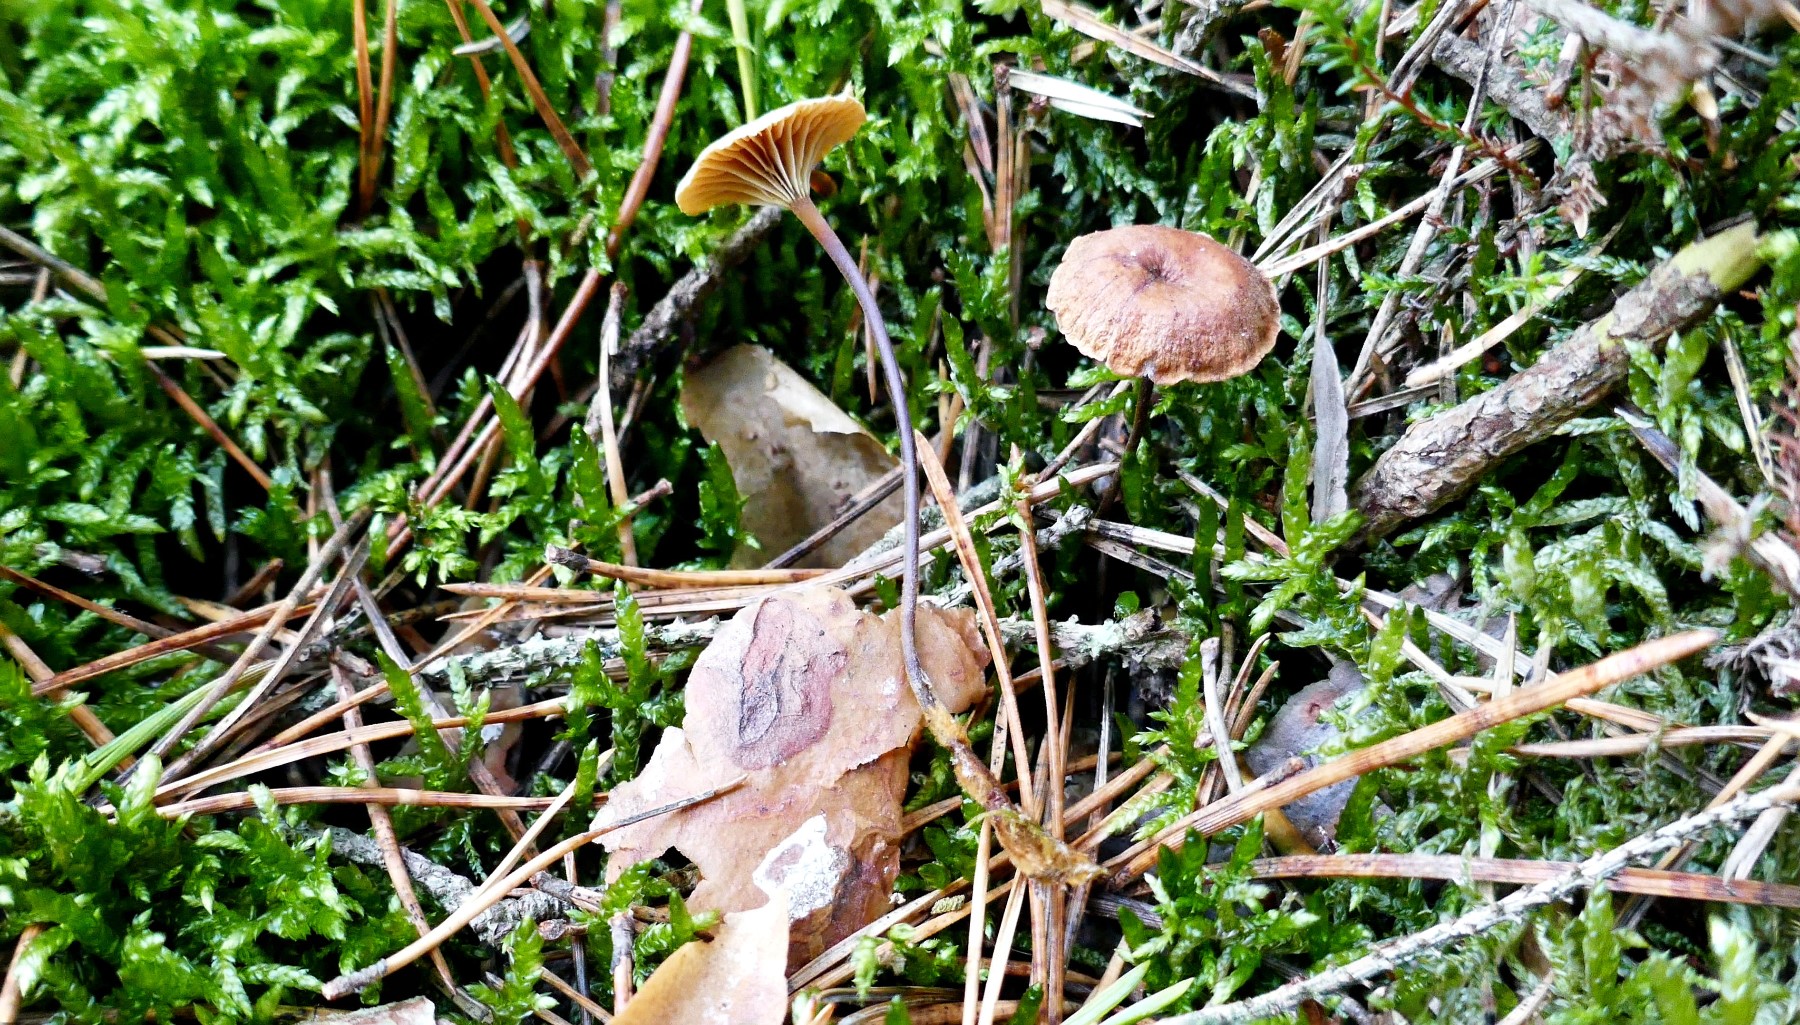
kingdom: Fungi
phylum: Basidiomycota
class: Agaricomycetes
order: Agaricales
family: Mycenaceae
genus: Xeromphalina
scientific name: Xeromphalina cauticinalis
